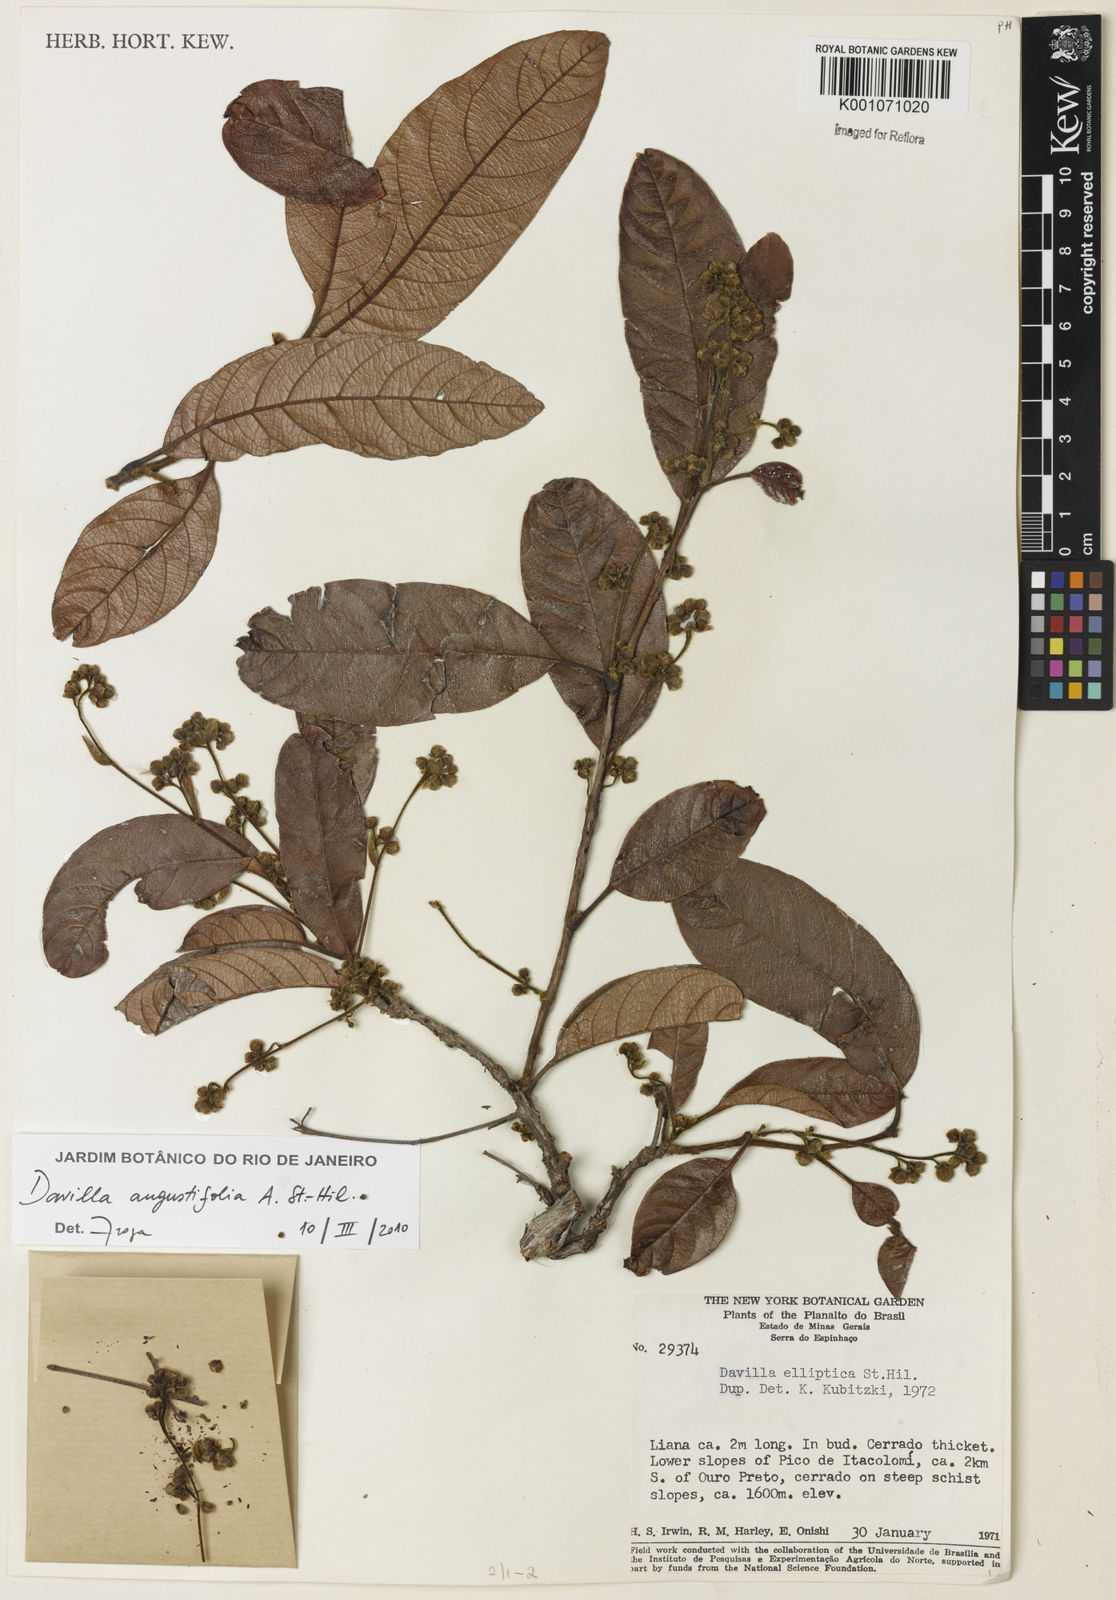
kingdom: Plantae
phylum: Tracheophyta
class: Magnoliopsida
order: Dilleniales
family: Dilleniaceae
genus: Davilla
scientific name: Davilla angustifolia
